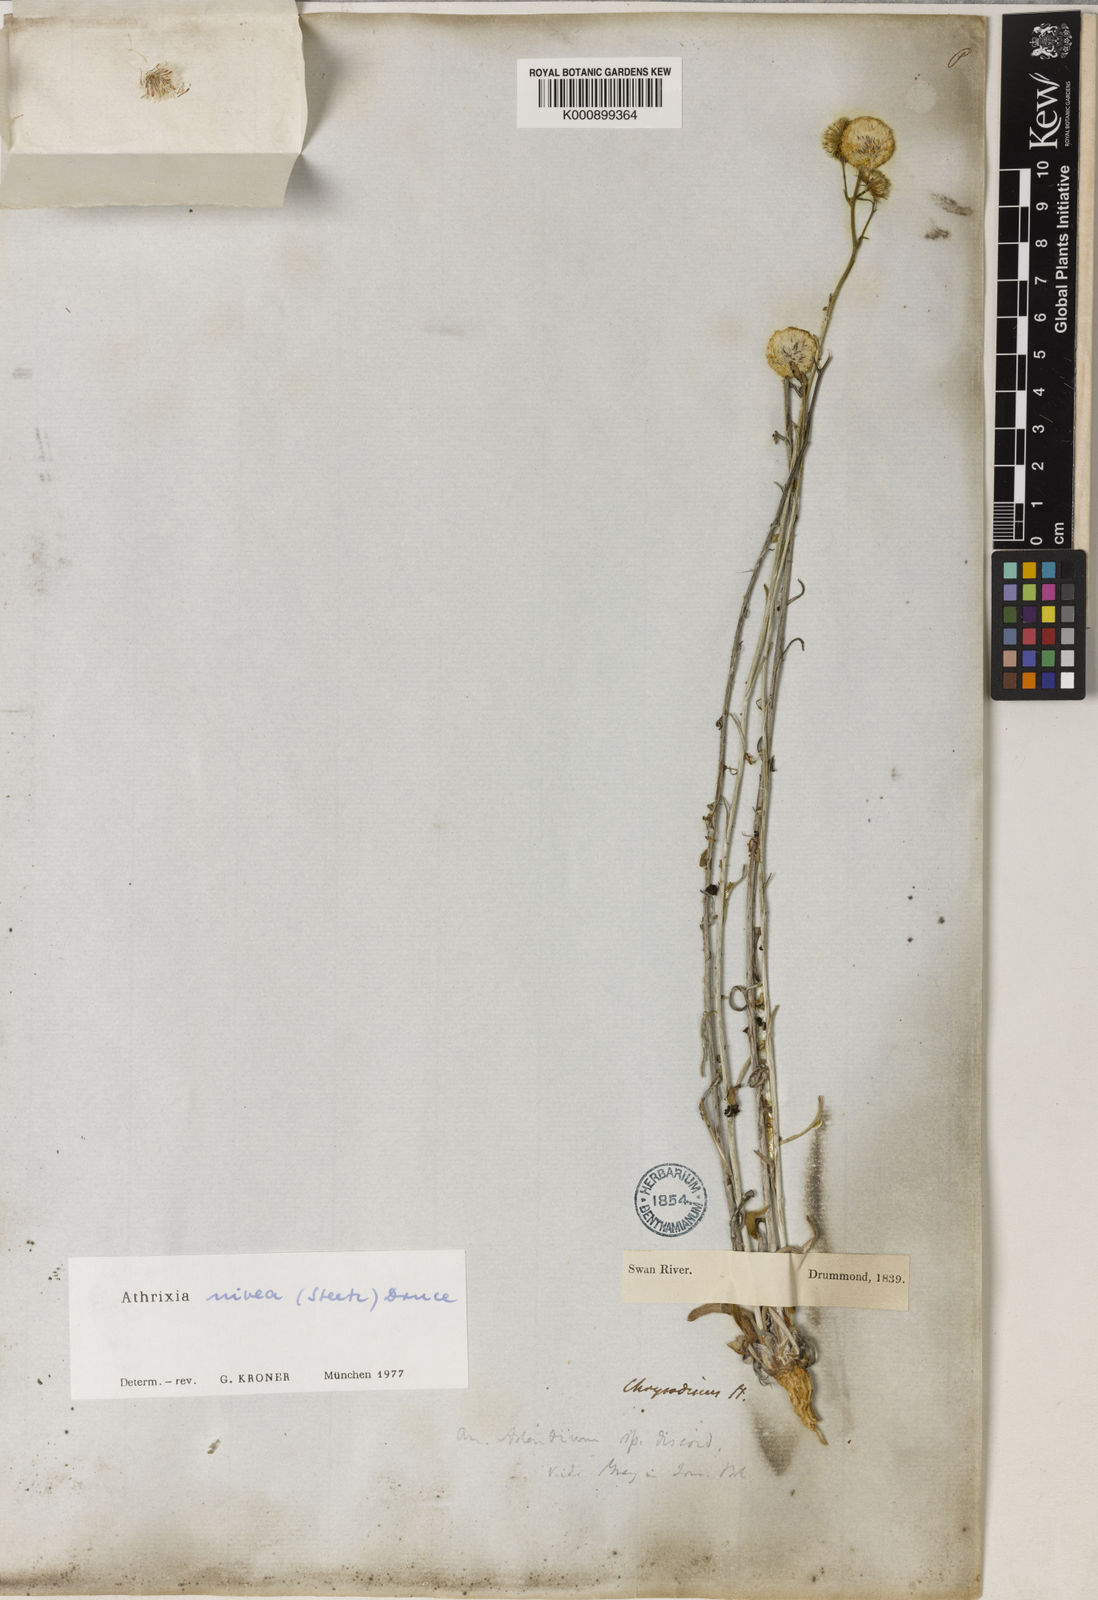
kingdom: Plantae
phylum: Tracheophyta
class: Magnoliopsida
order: Asterales
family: Asteraceae
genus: Asteridea
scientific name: Asteridea nivea
